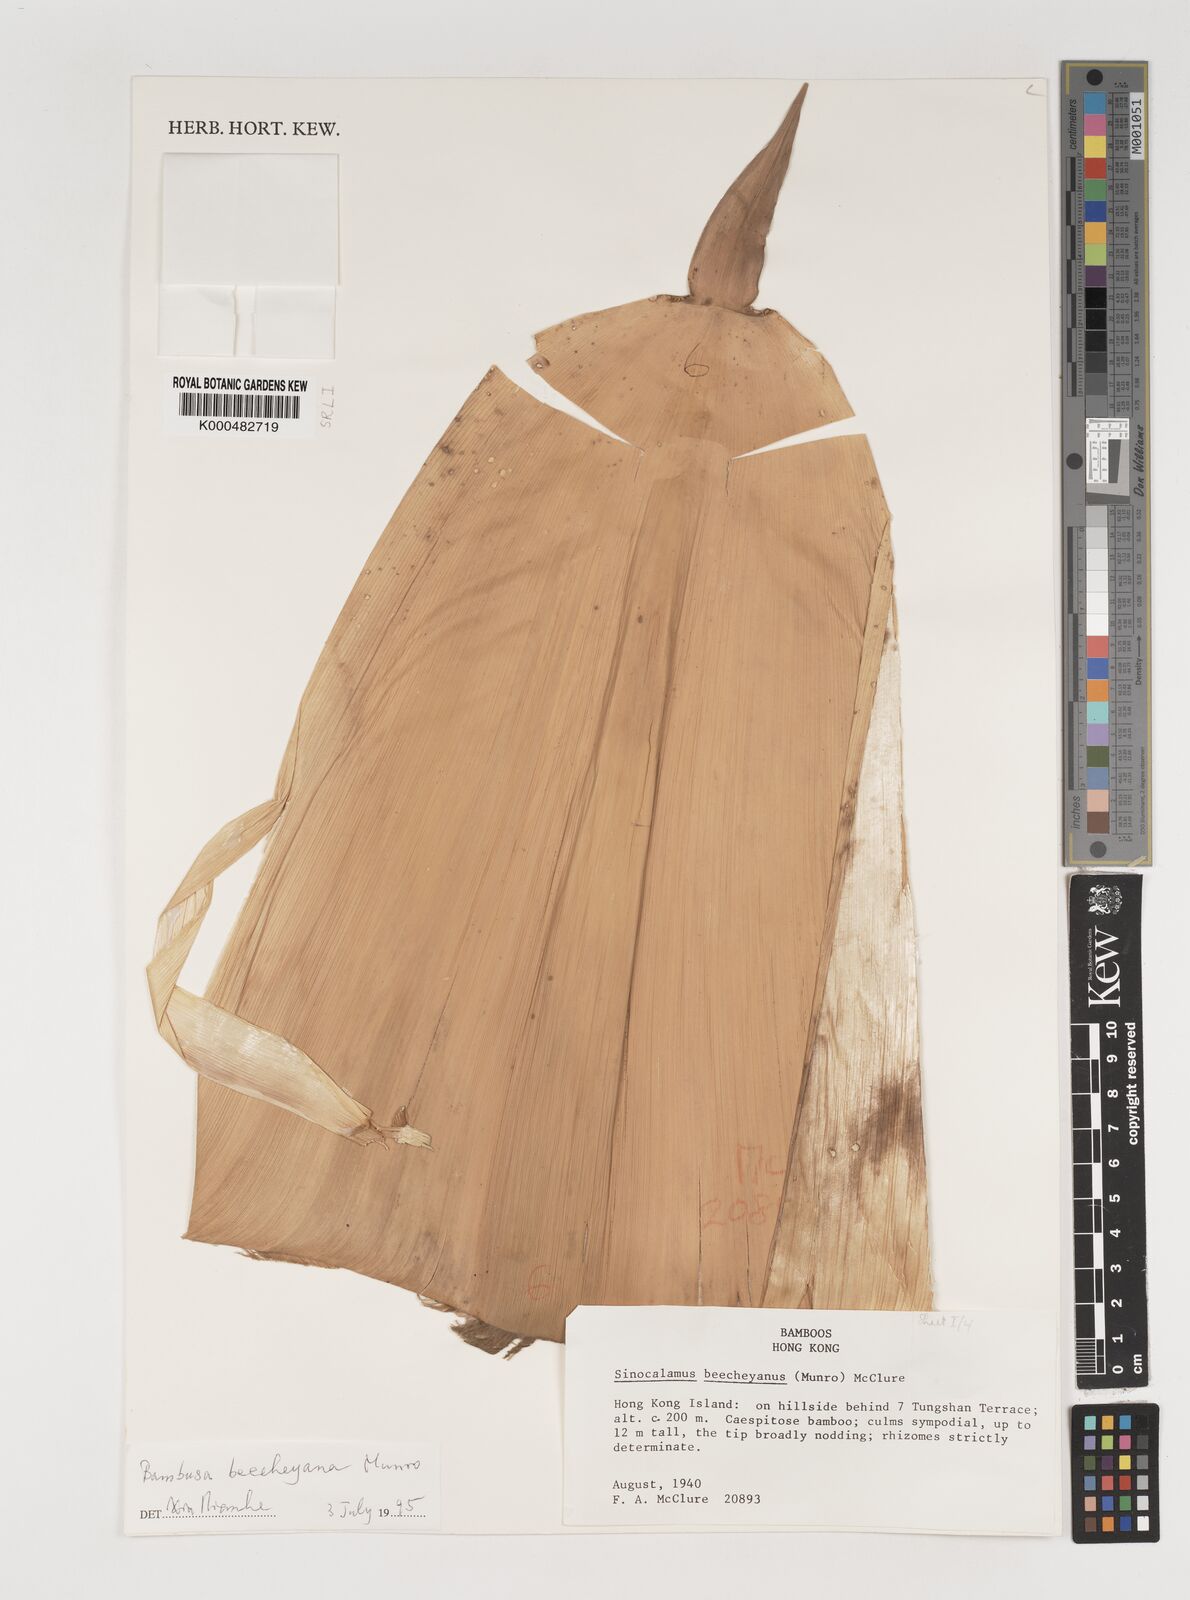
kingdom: Plantae
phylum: Tracheophyta
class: Liliopsida
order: Poales
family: Poaceae
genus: Bambusa
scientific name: Bambusa beecheyana
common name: Beechey's bamboo
